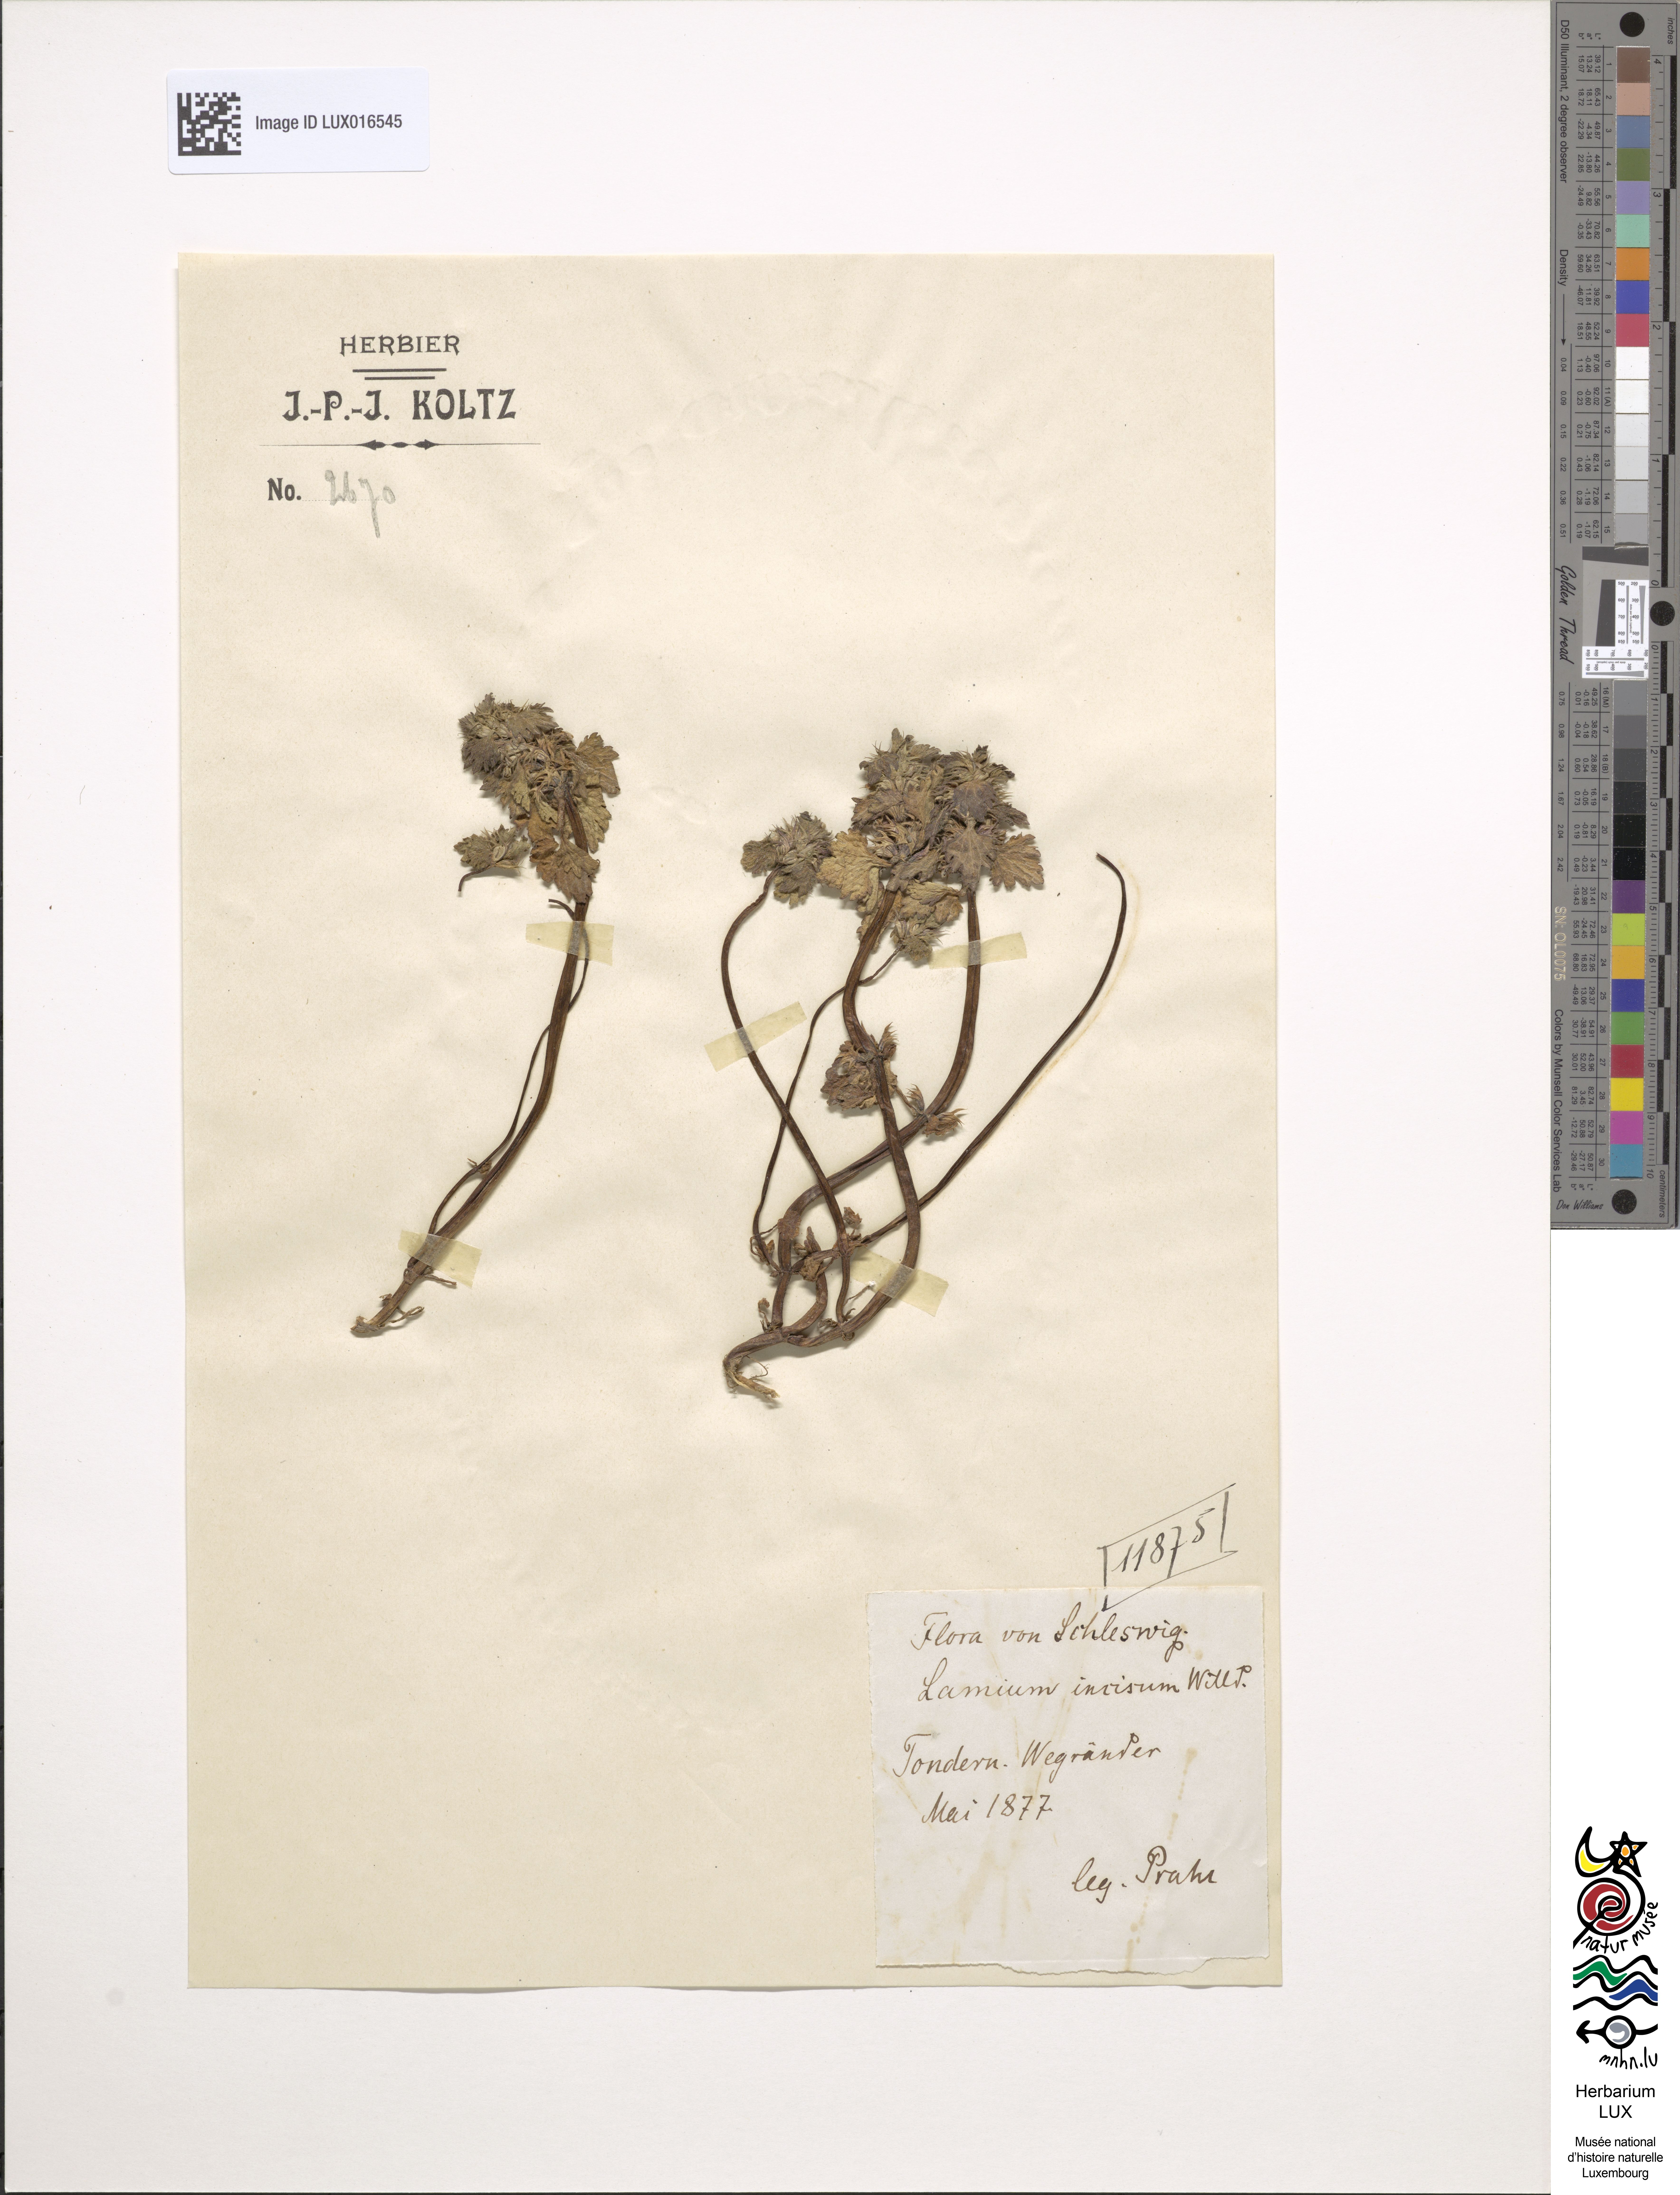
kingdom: Plantae
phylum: Tracheophyta
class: Magnoliopsida
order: Lamiales
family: Lamiaceae
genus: Lamium
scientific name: Lamium hybridum
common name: Cut-leaved dead-nettle
